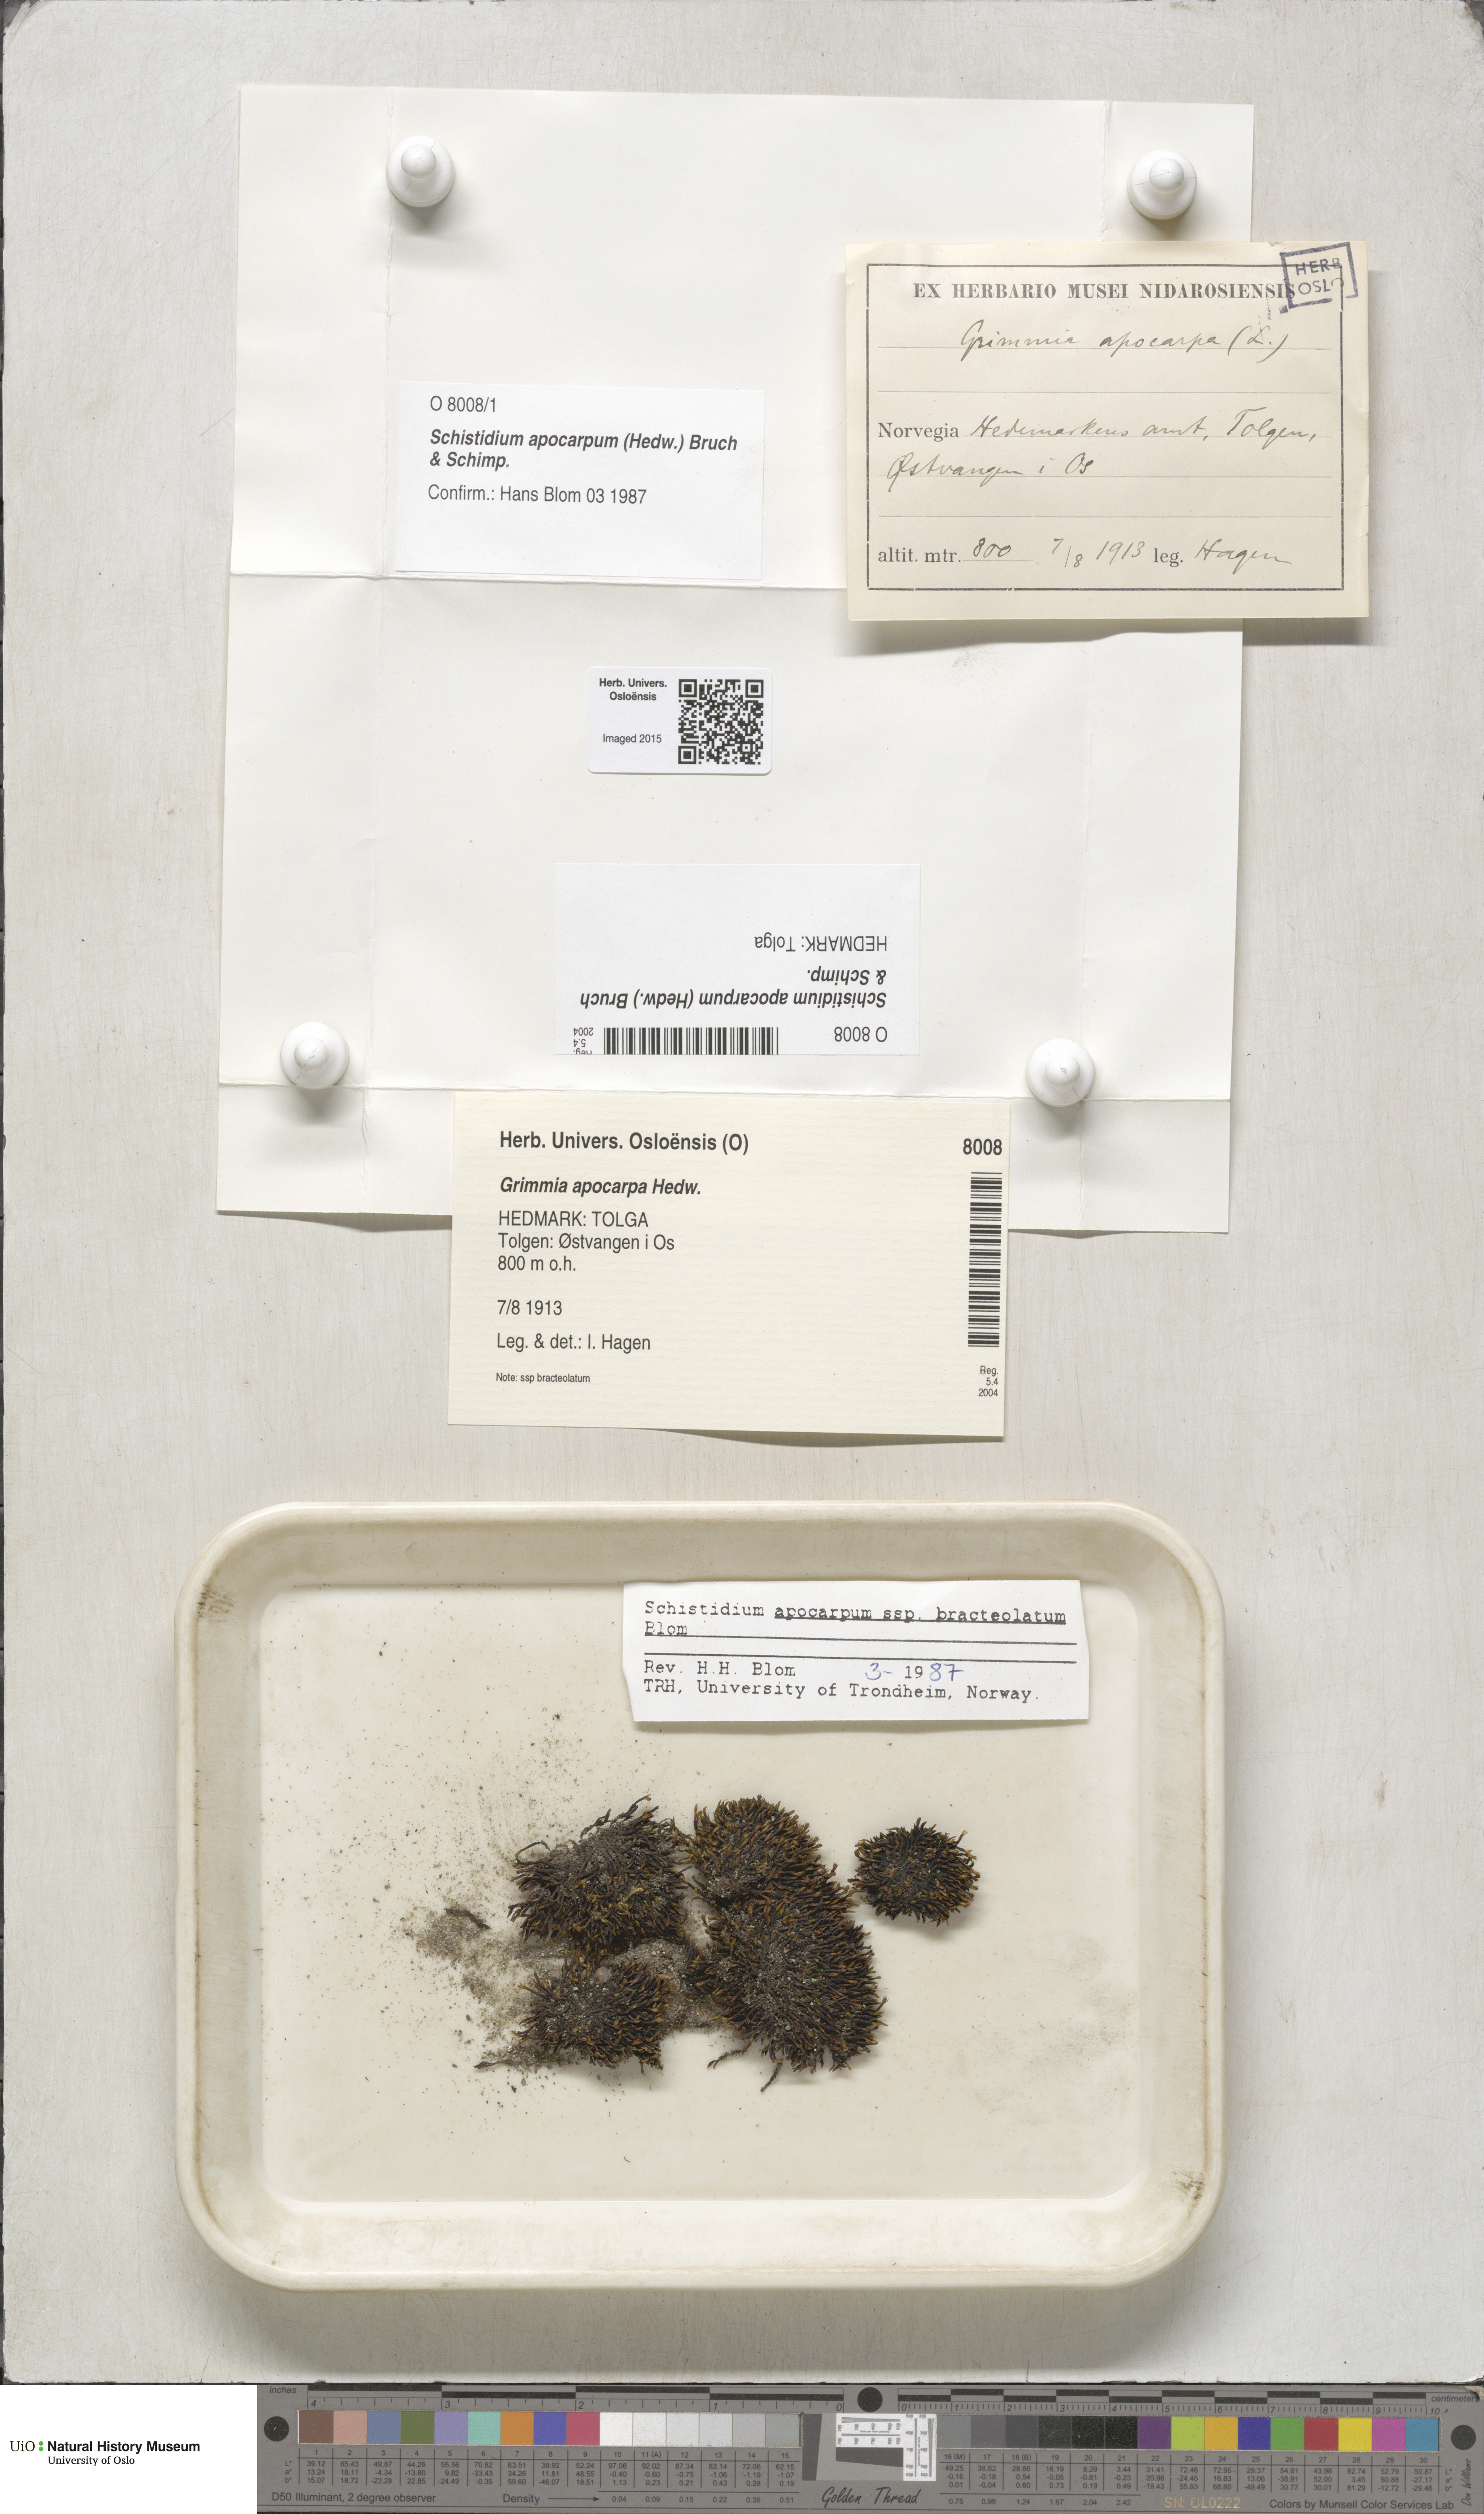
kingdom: Plantae
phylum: Bryophyta
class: Bryopsida
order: Grimmiales
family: Grimmiaceae
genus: Schistidium
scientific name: Schistidium apocarpum
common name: Radiate bloom moss
